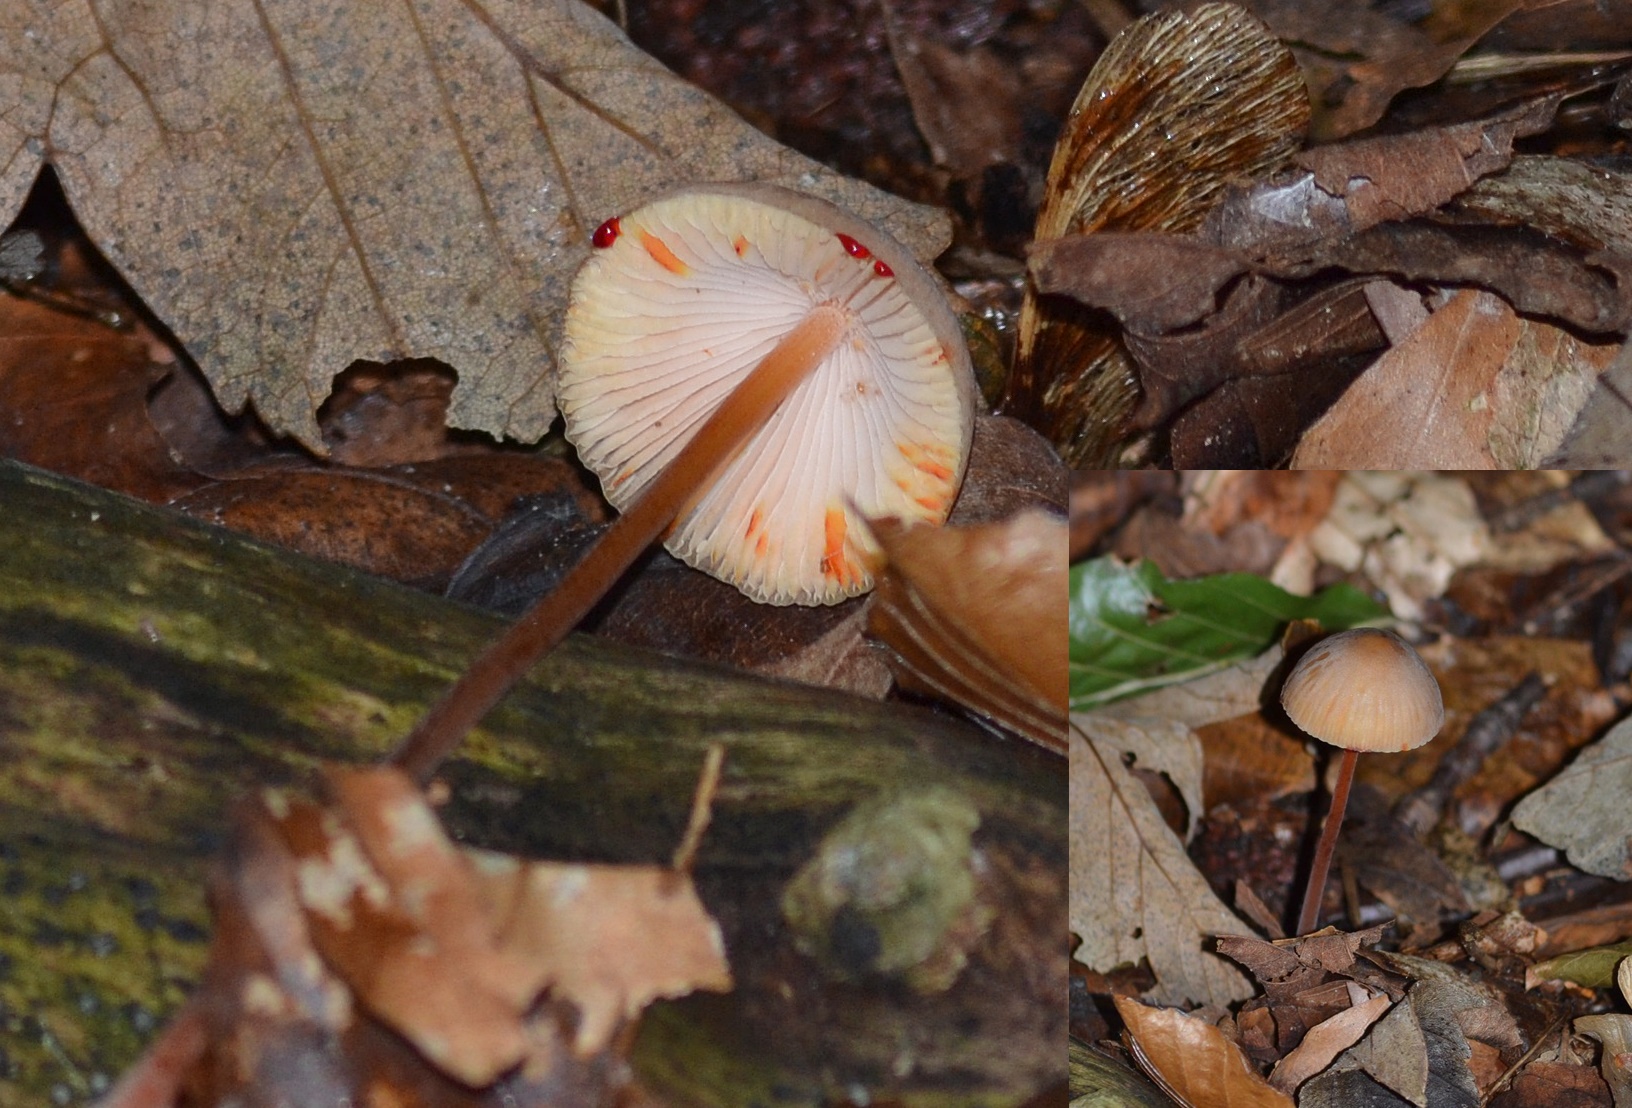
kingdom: Fungi
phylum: Basidiomycota
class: Agaricomycetes
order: Agaricales
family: Mycenaceae
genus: Mycena
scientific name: Mycena crocata
